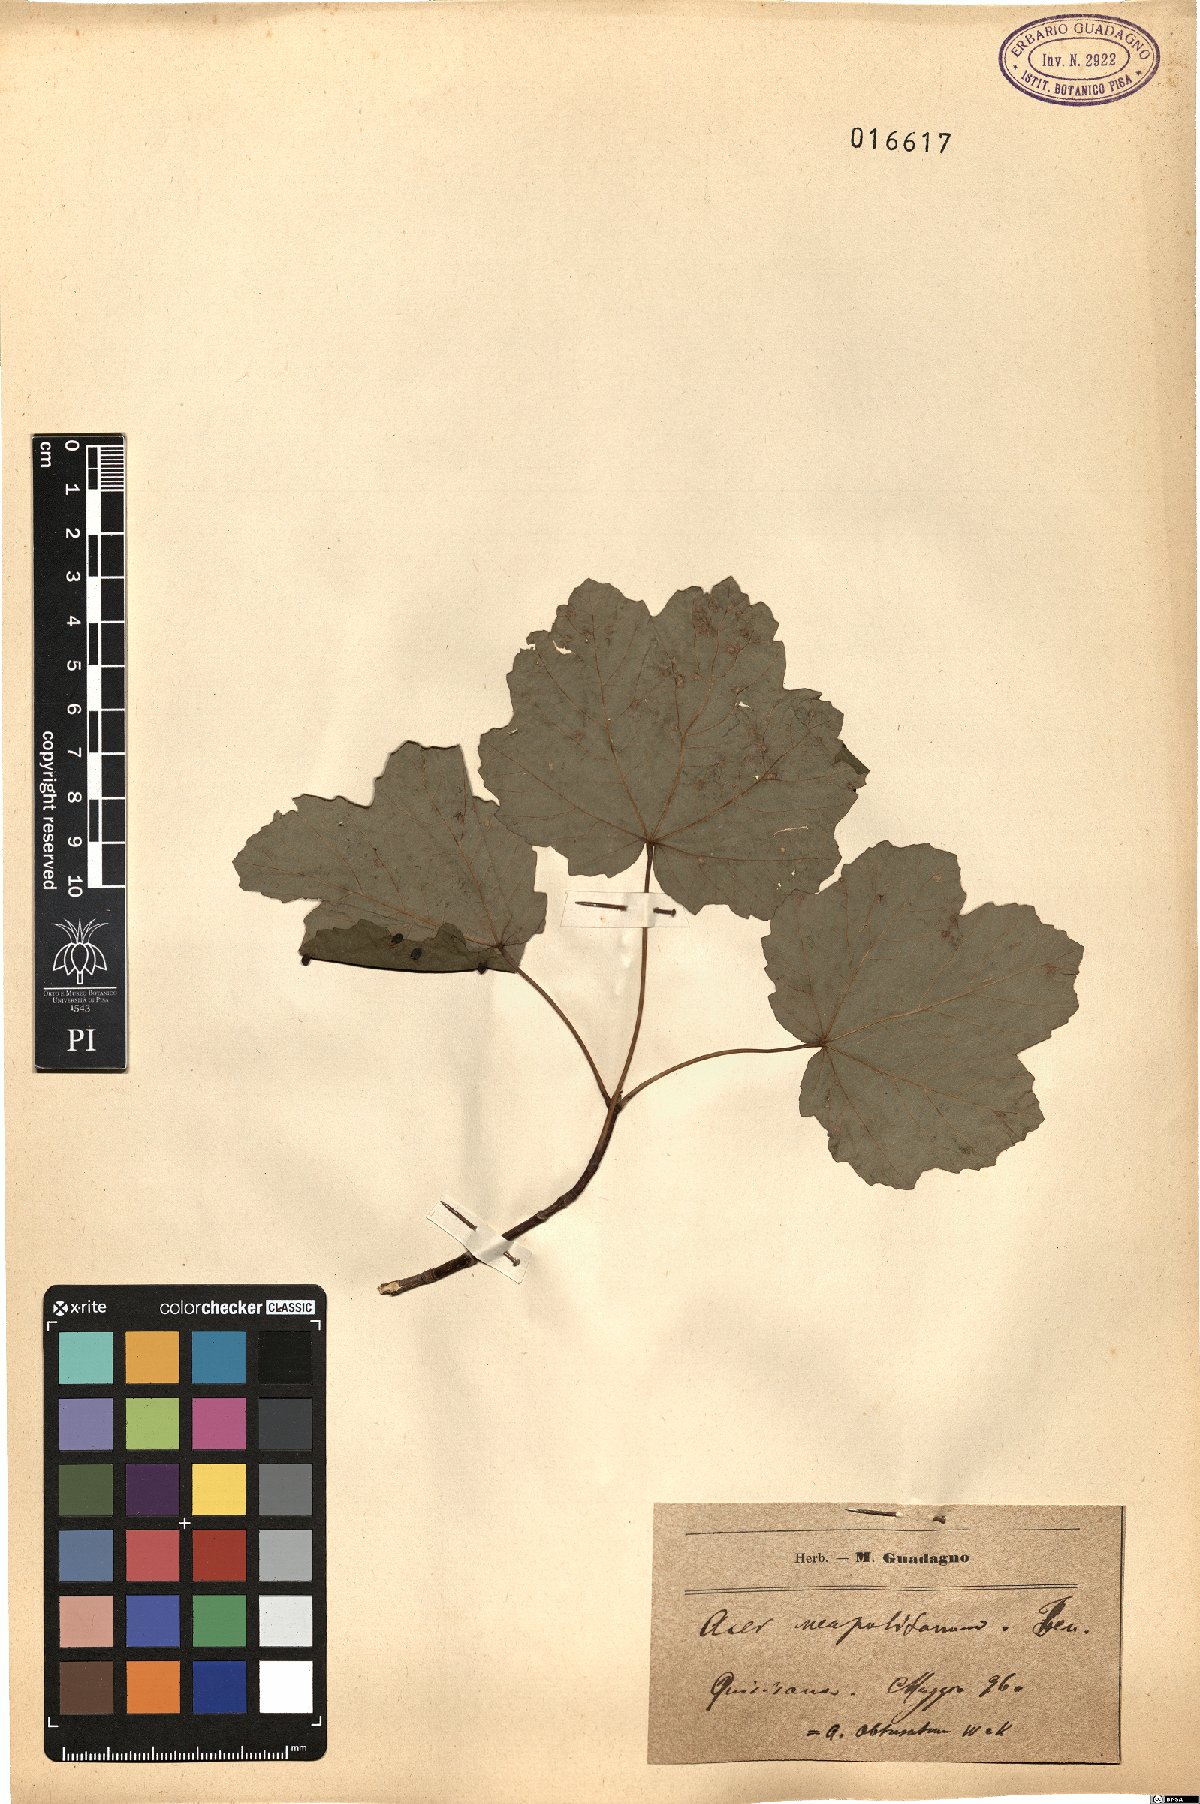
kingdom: Plantae
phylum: Tracheophyta
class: Magnoliopsida
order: Sapindales
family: Sapindaceae
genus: Acer
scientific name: Acer obtusatum
